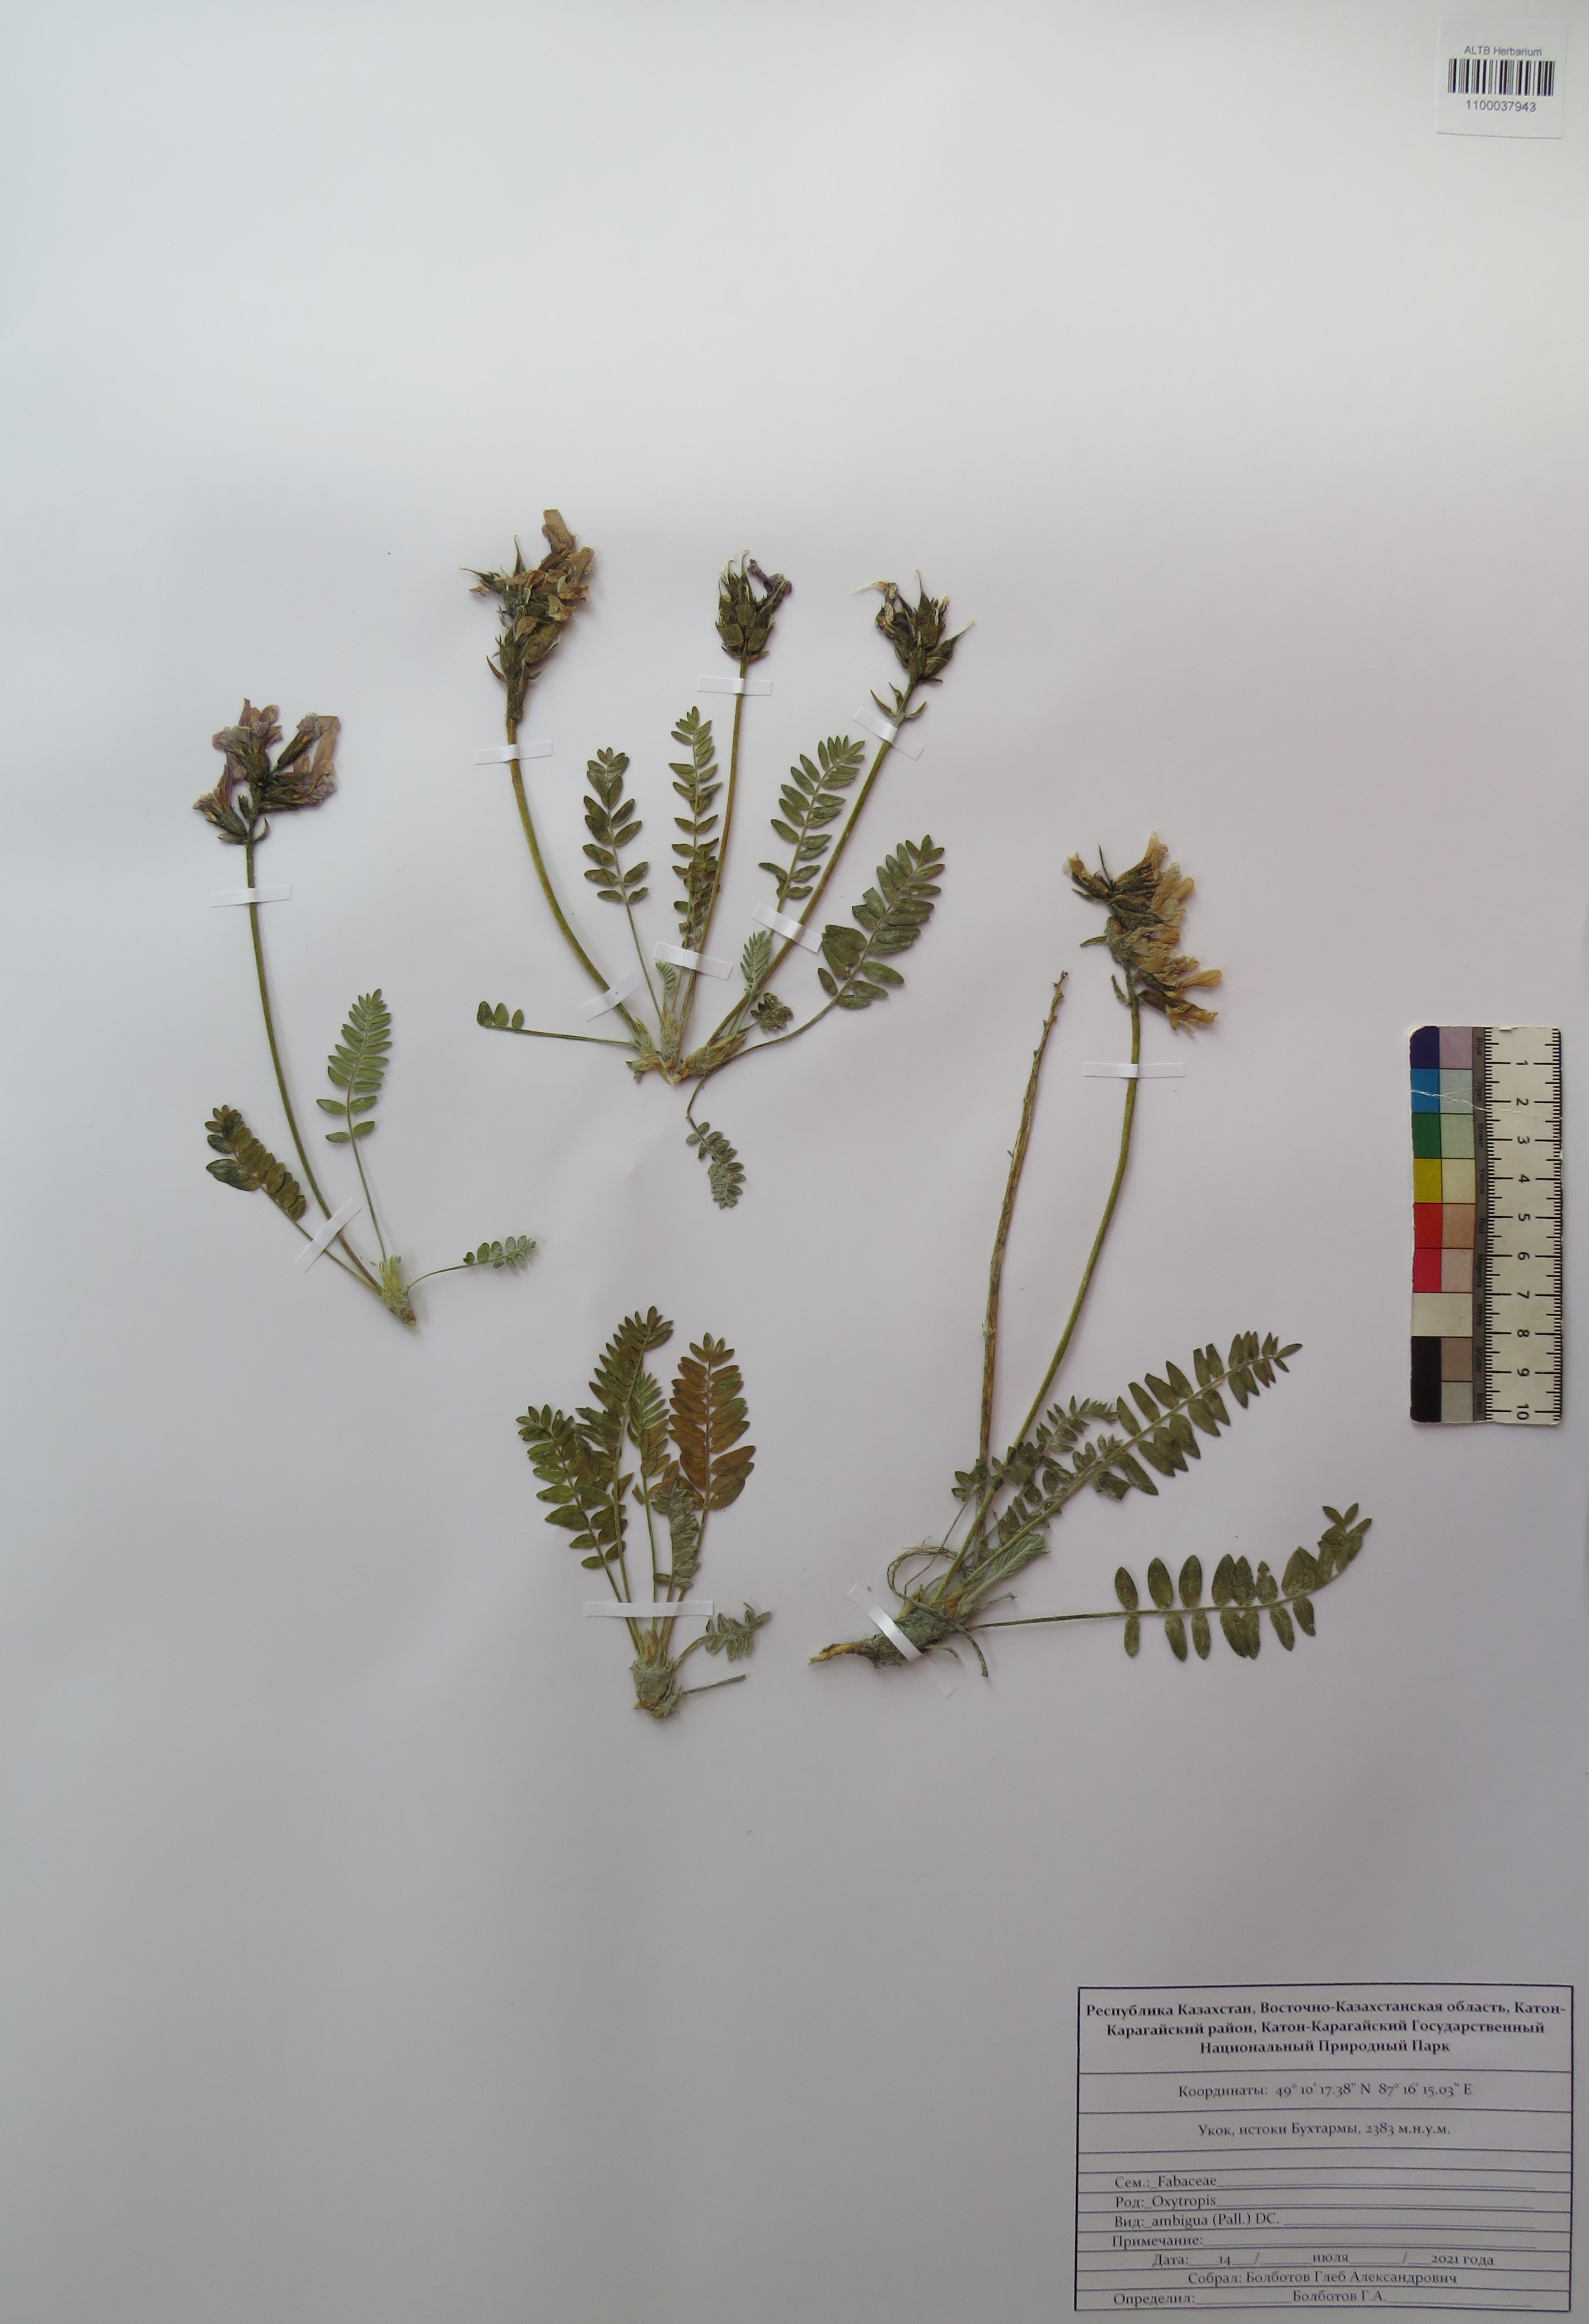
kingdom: Plantae
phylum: Tracheophyta
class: Magnoliopsida
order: Fabales
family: Fabaceae
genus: Oxytropis
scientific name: Oxytropis ambigua
